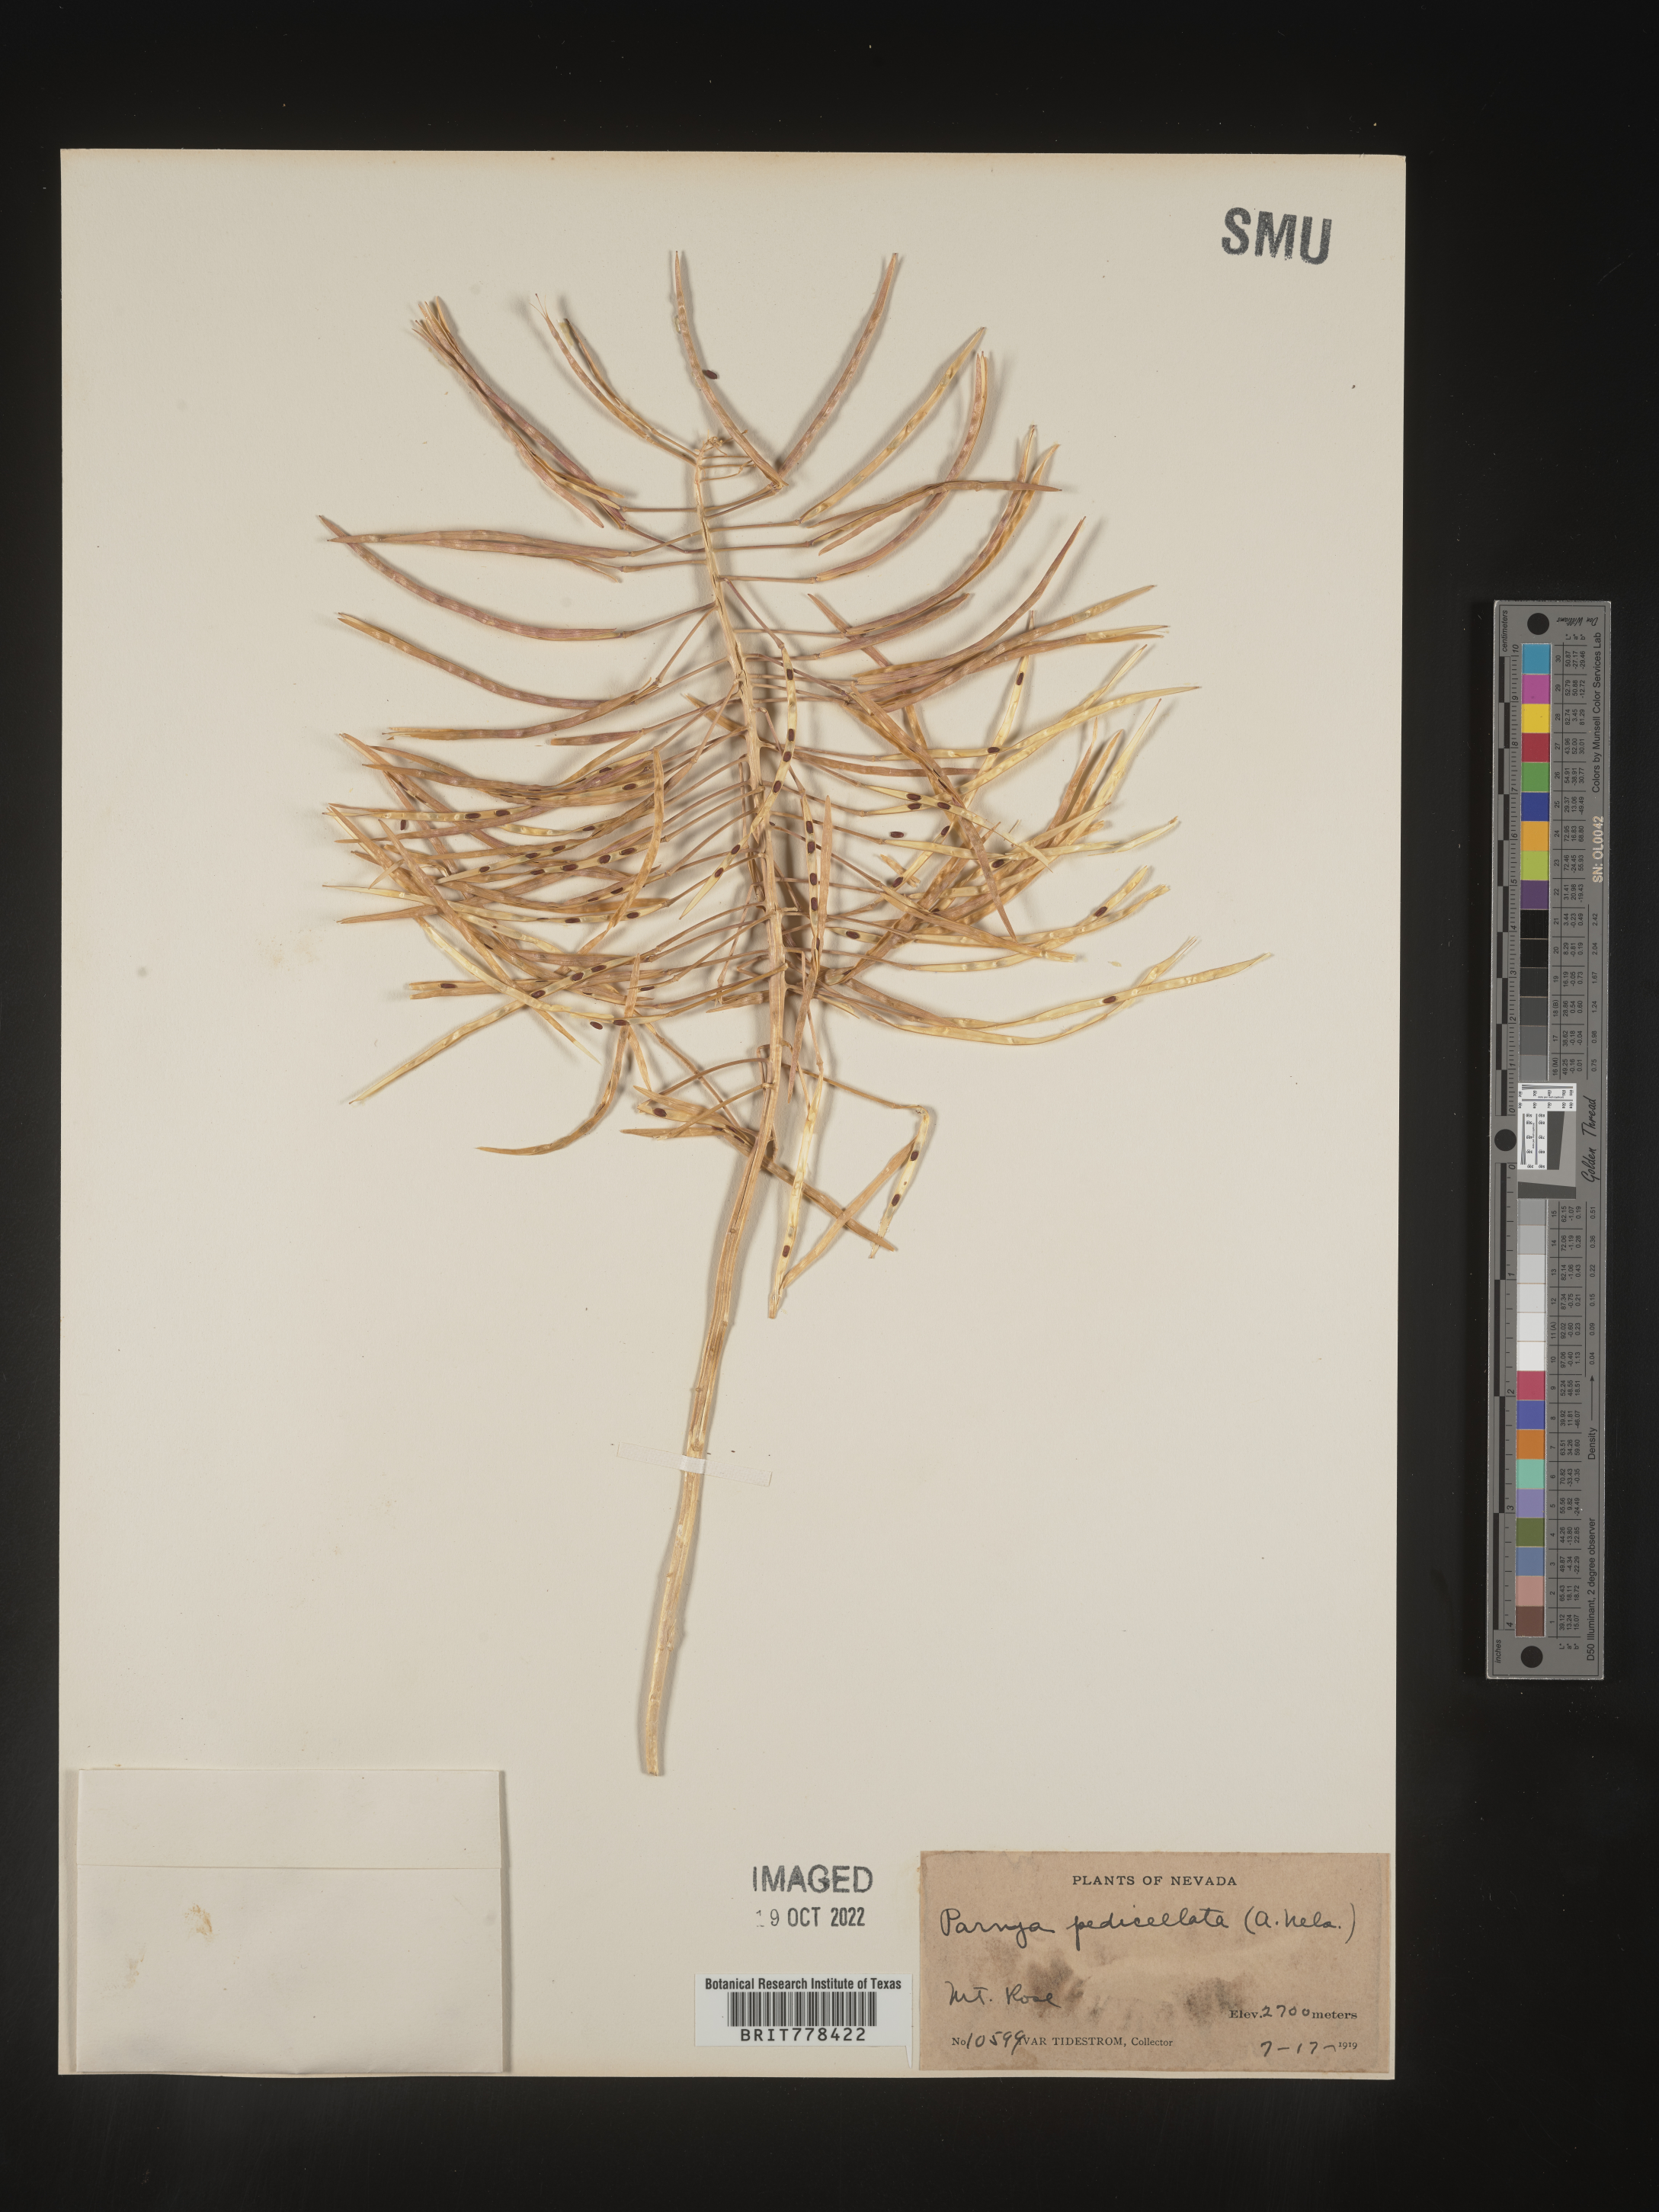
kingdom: Plantae
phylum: Tracheophyta
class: Magnoliopsida
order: Brassicales
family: Brassicaceae
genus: Parrya
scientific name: Parrya
